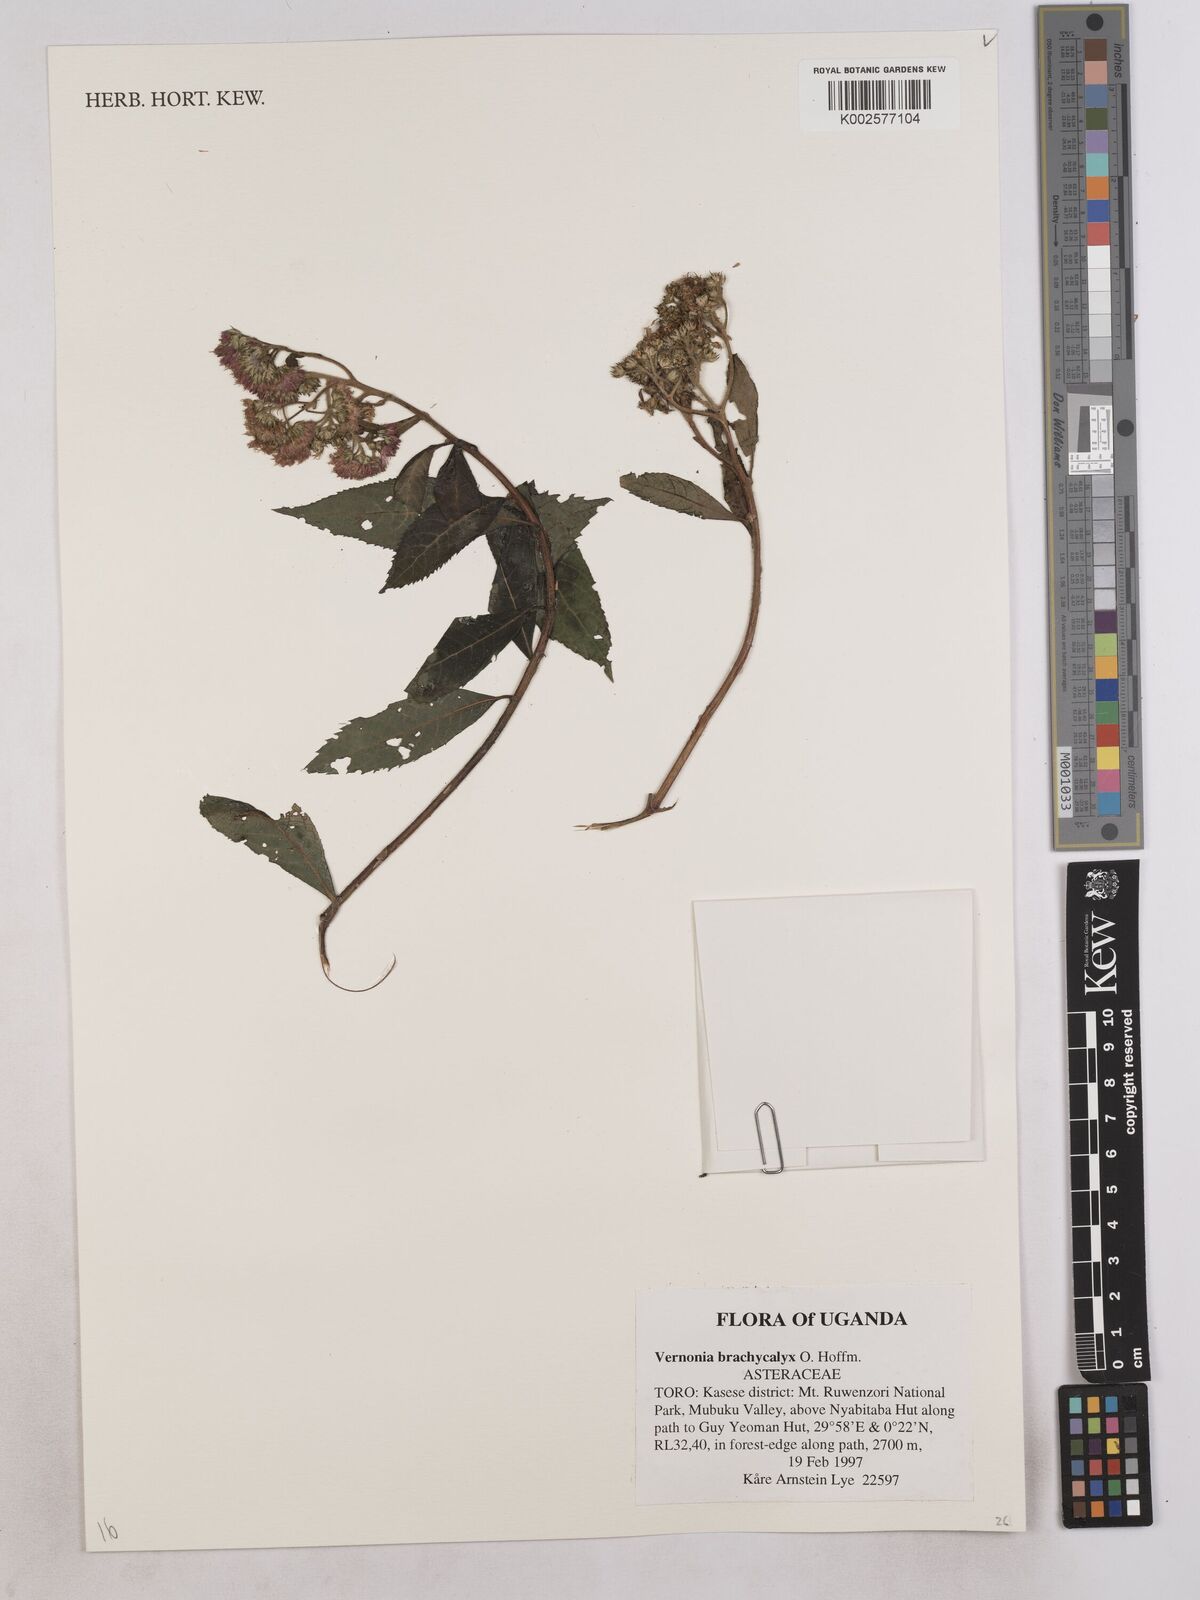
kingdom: Plantae
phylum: Tracheophyta
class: Magnoliopsida
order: Asterales
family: Asteraceae
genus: Hoffmannanthus
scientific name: Hoffmannanthus abbotianus
